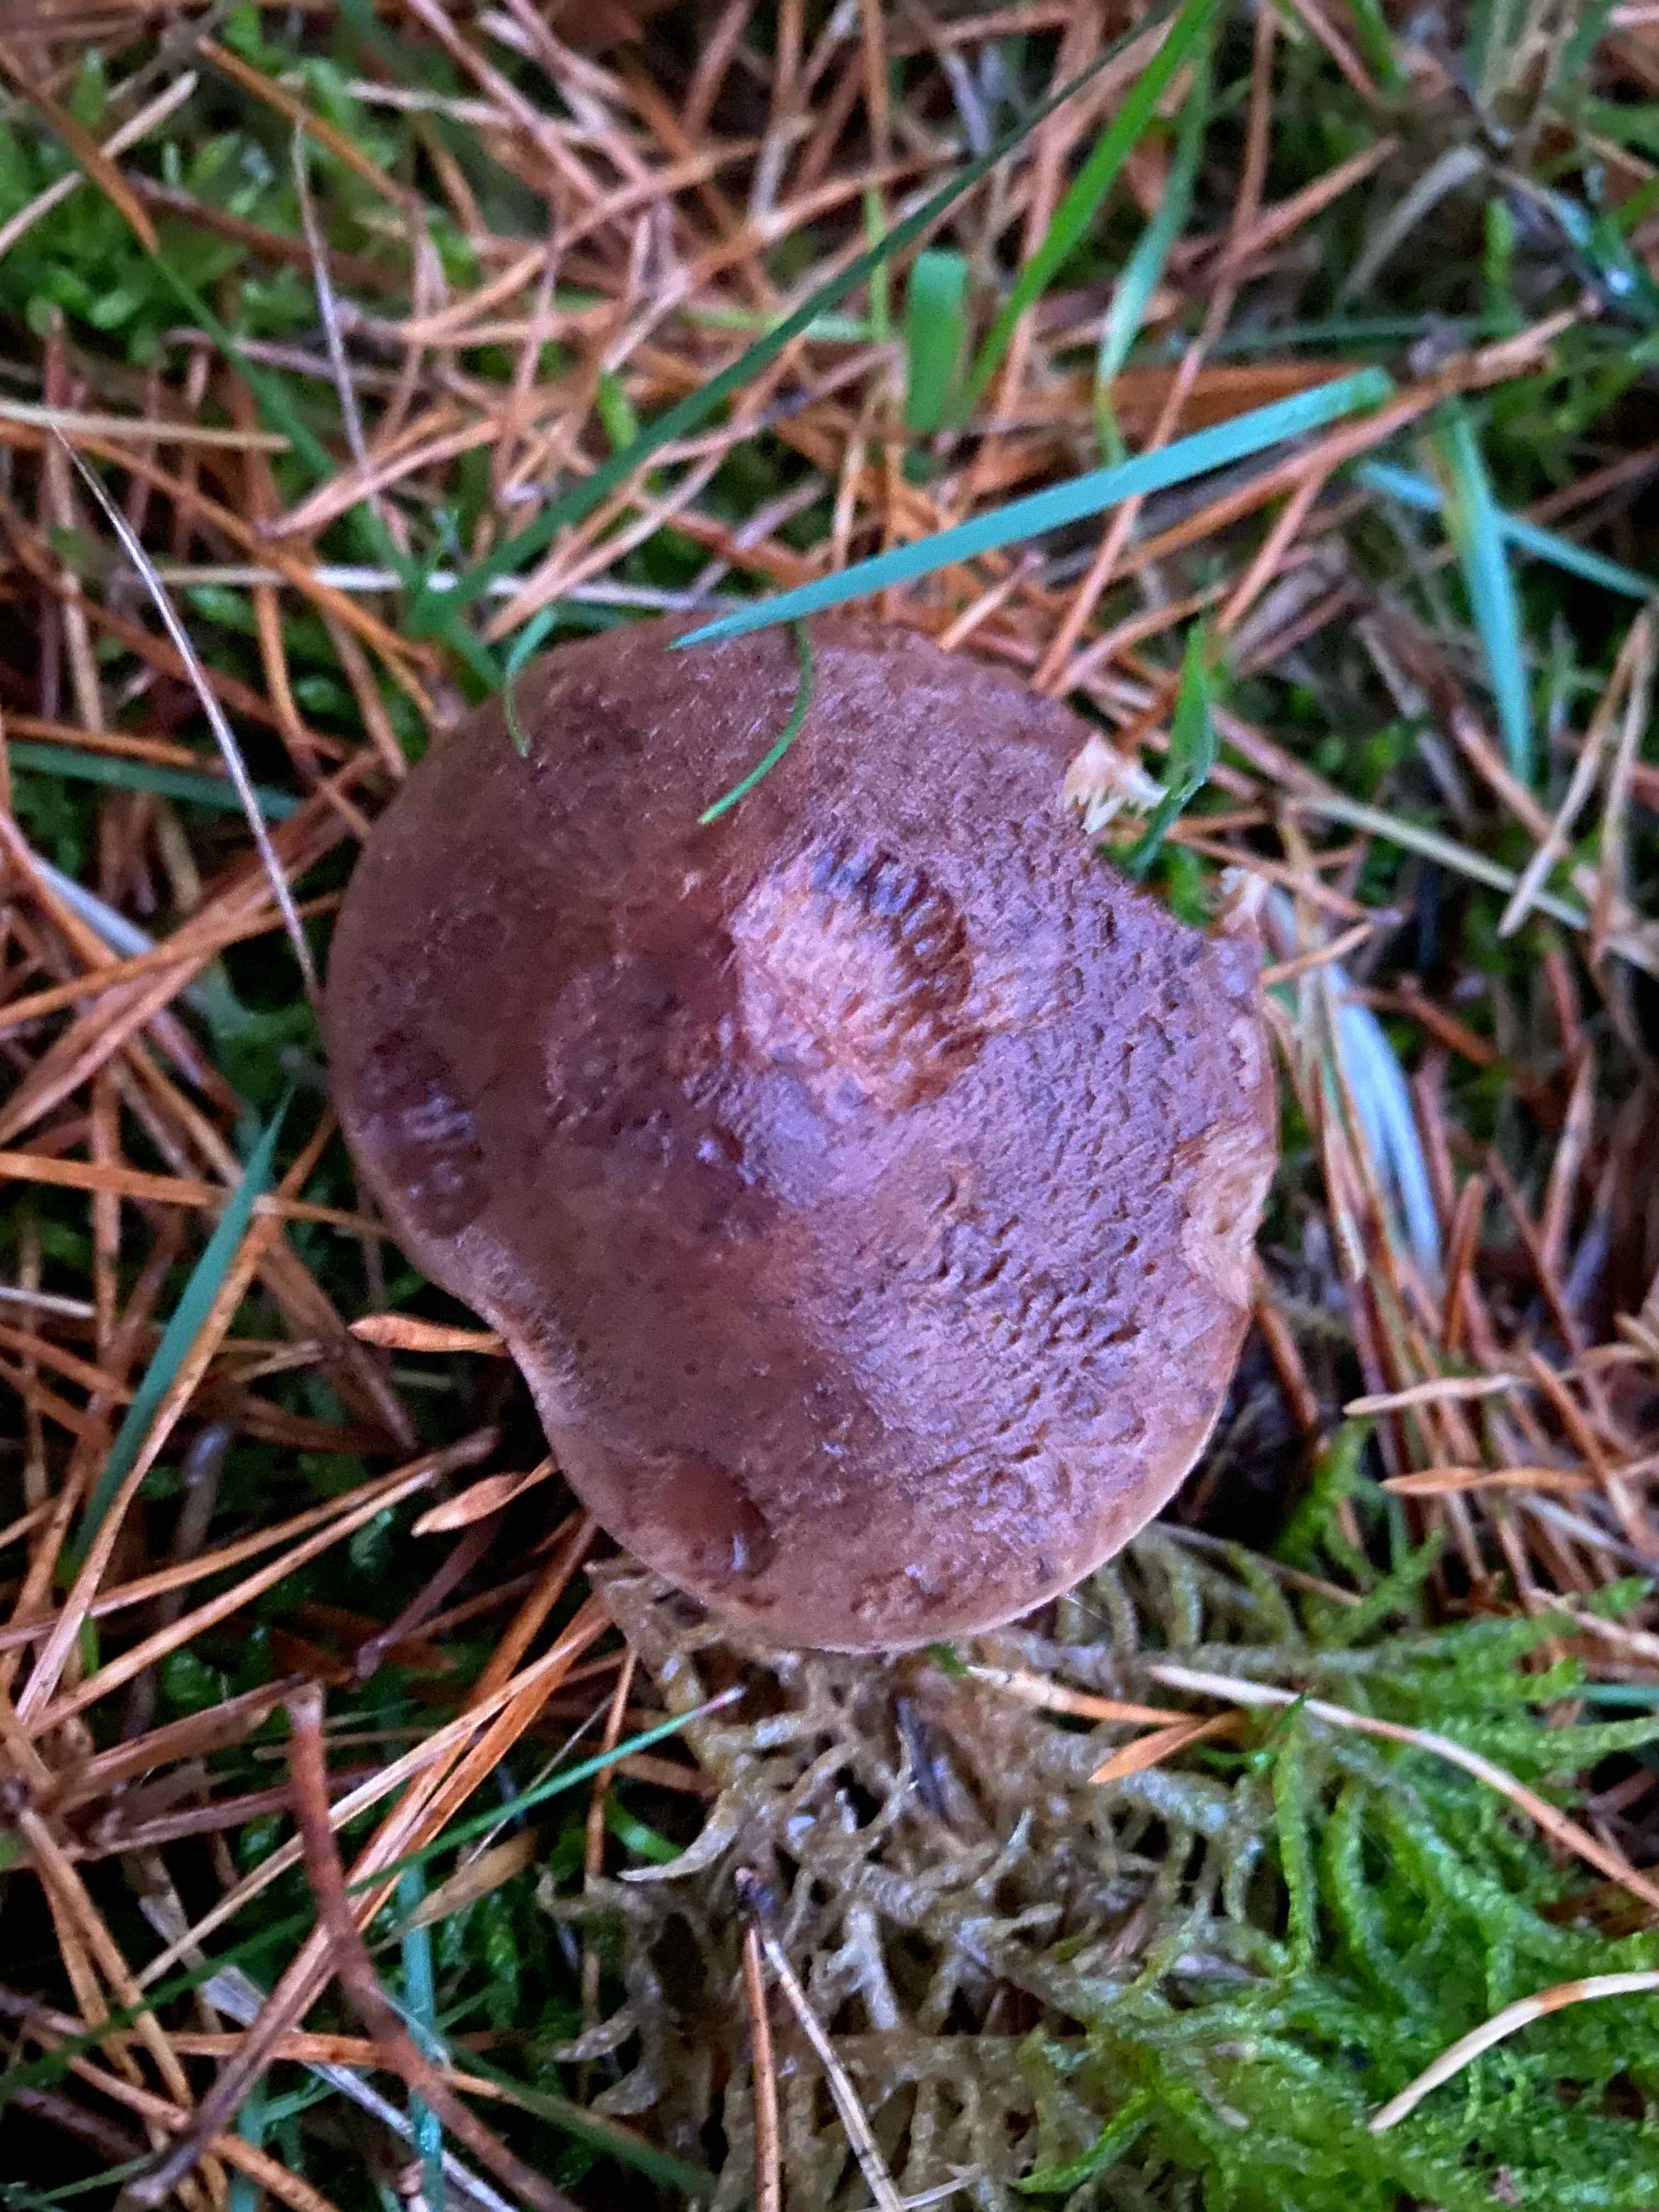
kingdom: Fungi
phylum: Basidiomycota
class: Agaricomycetes
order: Agaricales
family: Tricholomataceae
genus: Tricholoma
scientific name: Tricholoma imbricatum
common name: skællet ridderhat
